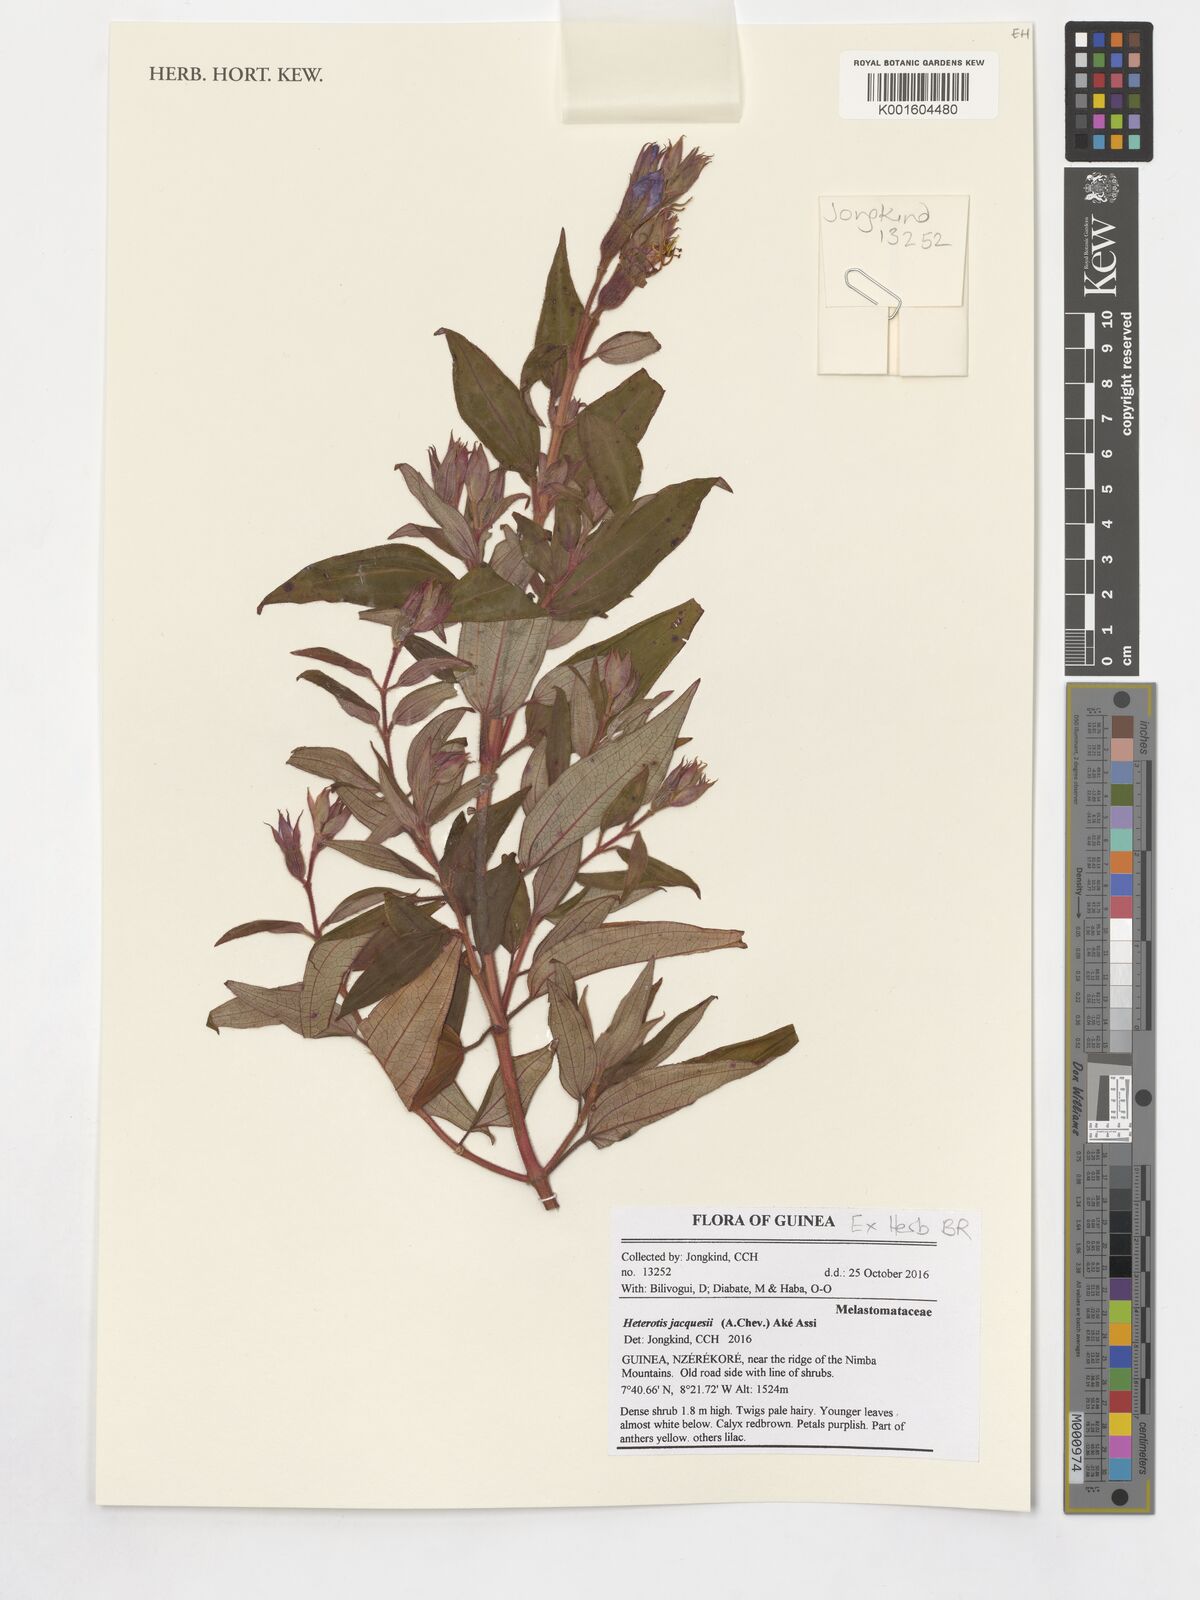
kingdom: Plantae
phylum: Tracheophyta
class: Magnoliopsida
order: Myrtales
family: Melastomataceae
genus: Guyonia
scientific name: Guyonia jacquesii
